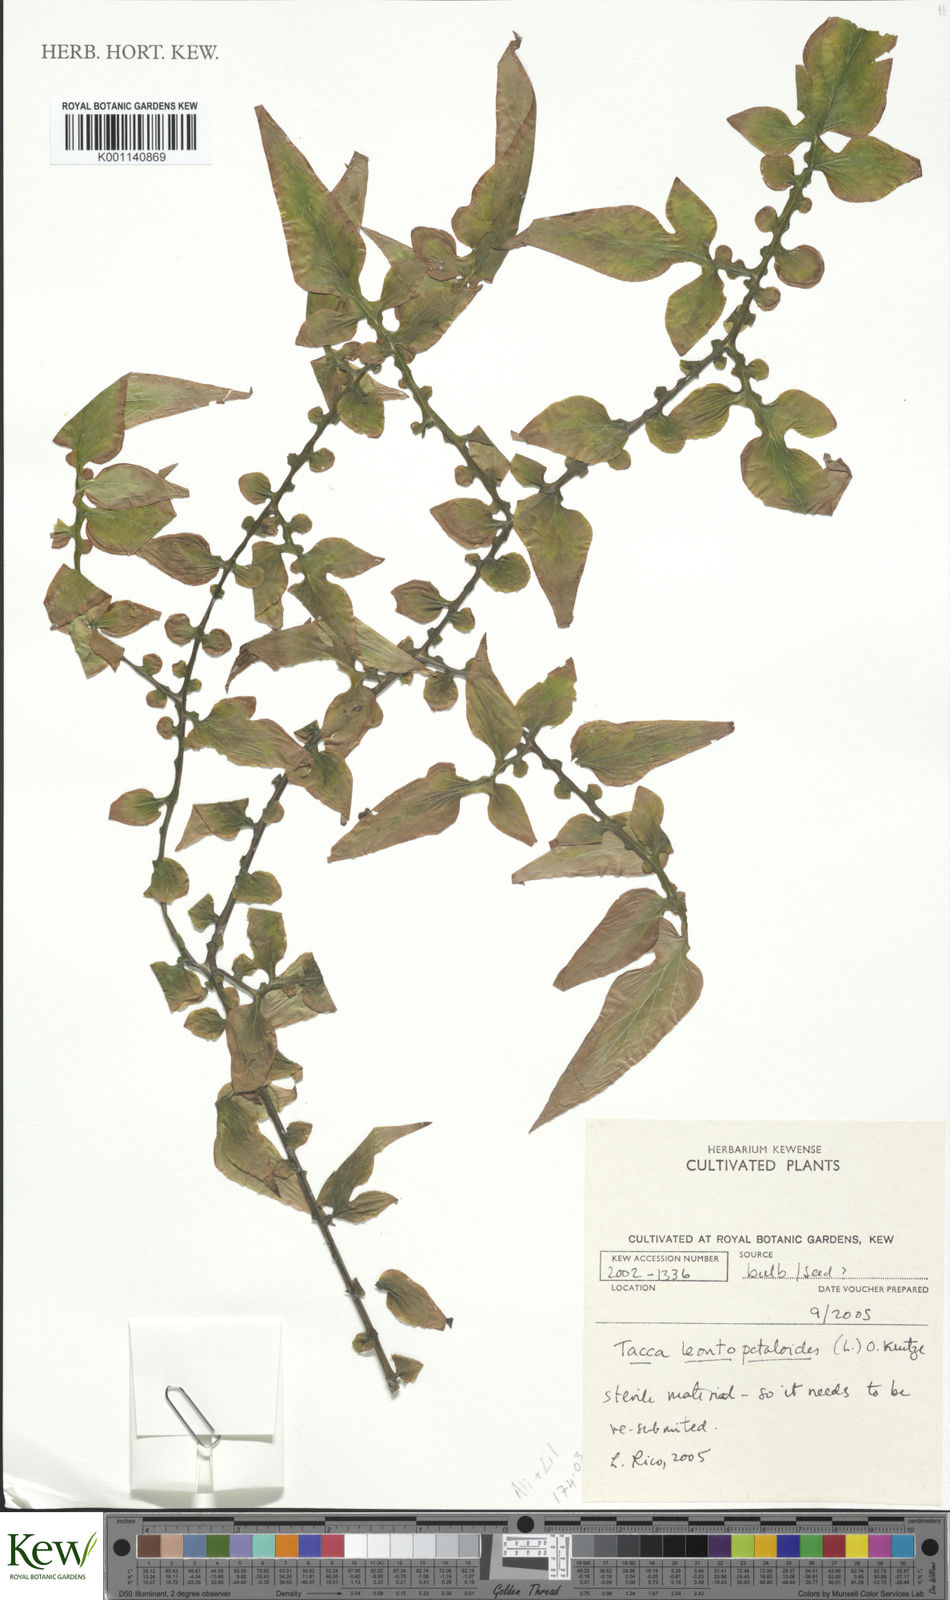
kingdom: Plantae
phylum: Tracheophyta
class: Liliopsida
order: Dioscoreales
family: Dioscoreaceae
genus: Tacca
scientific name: Tacca leontopetaloides
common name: Arrowroot
